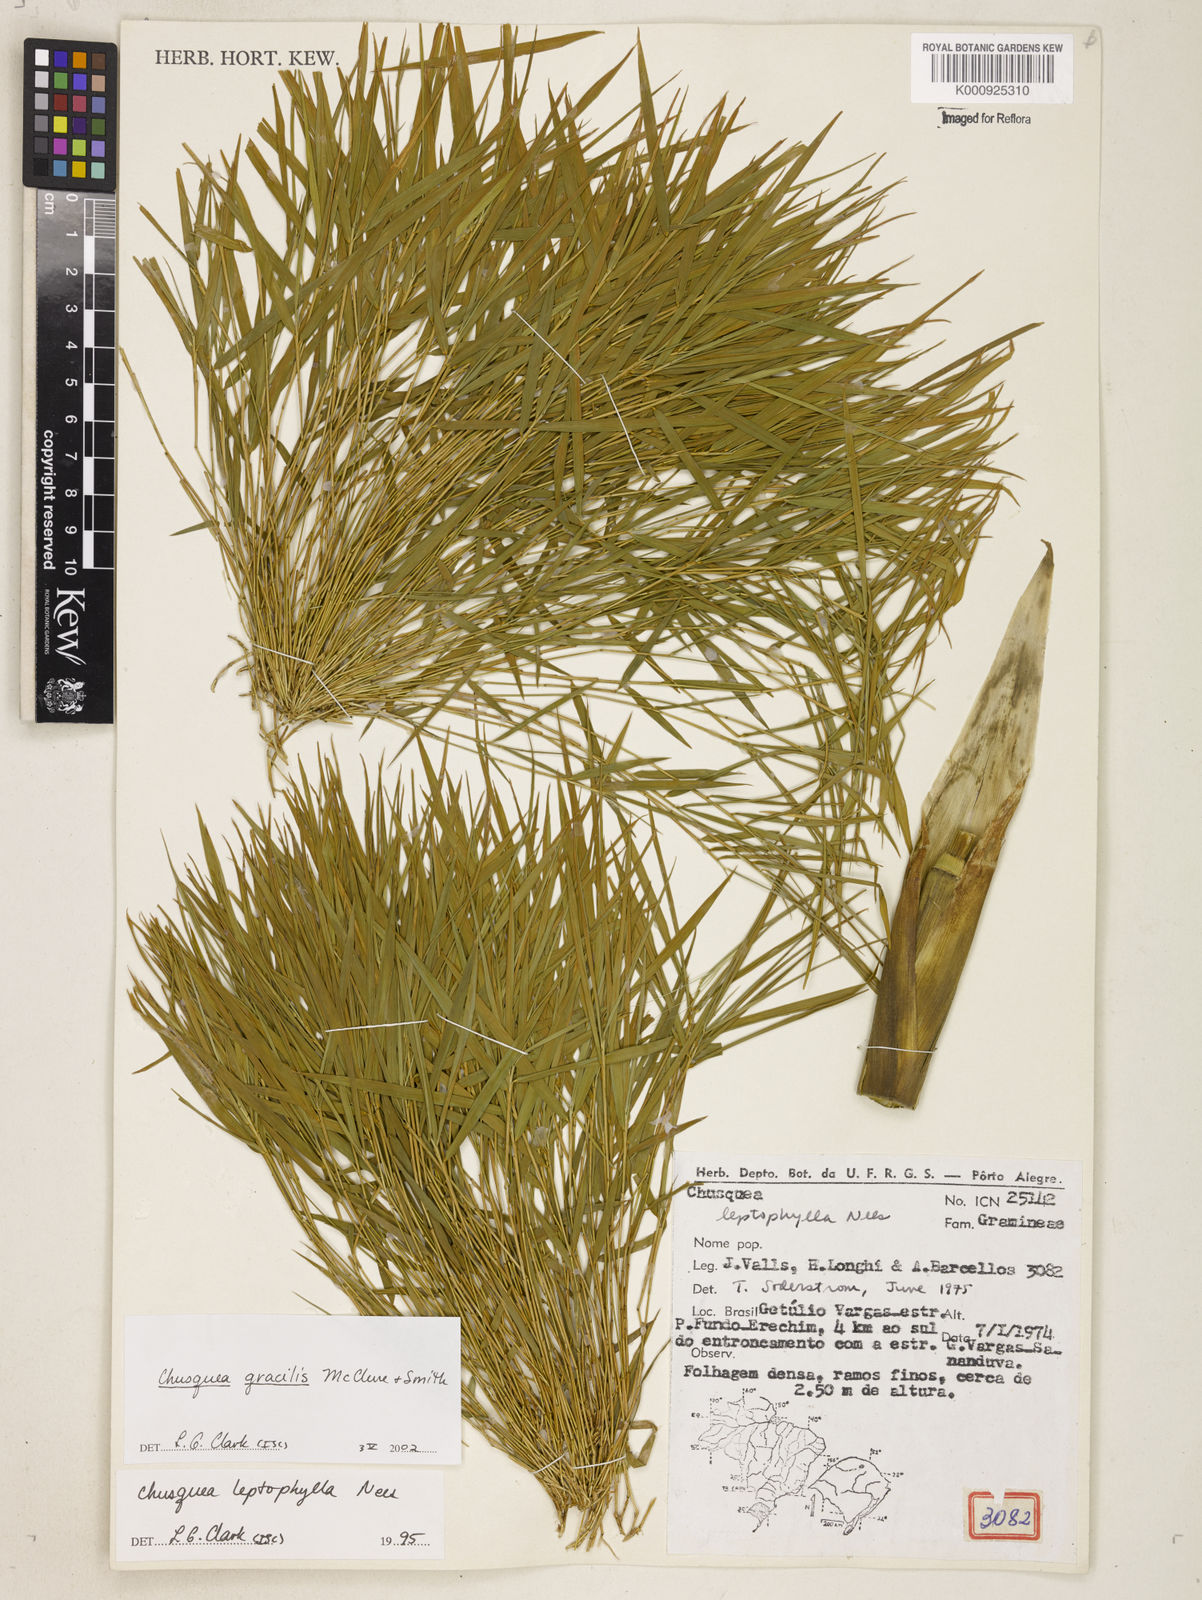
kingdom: Plantae
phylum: Tracheophyta
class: Liliopsida
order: Poales
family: Poaceae
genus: Chusquea
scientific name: Chusquea gracilis
